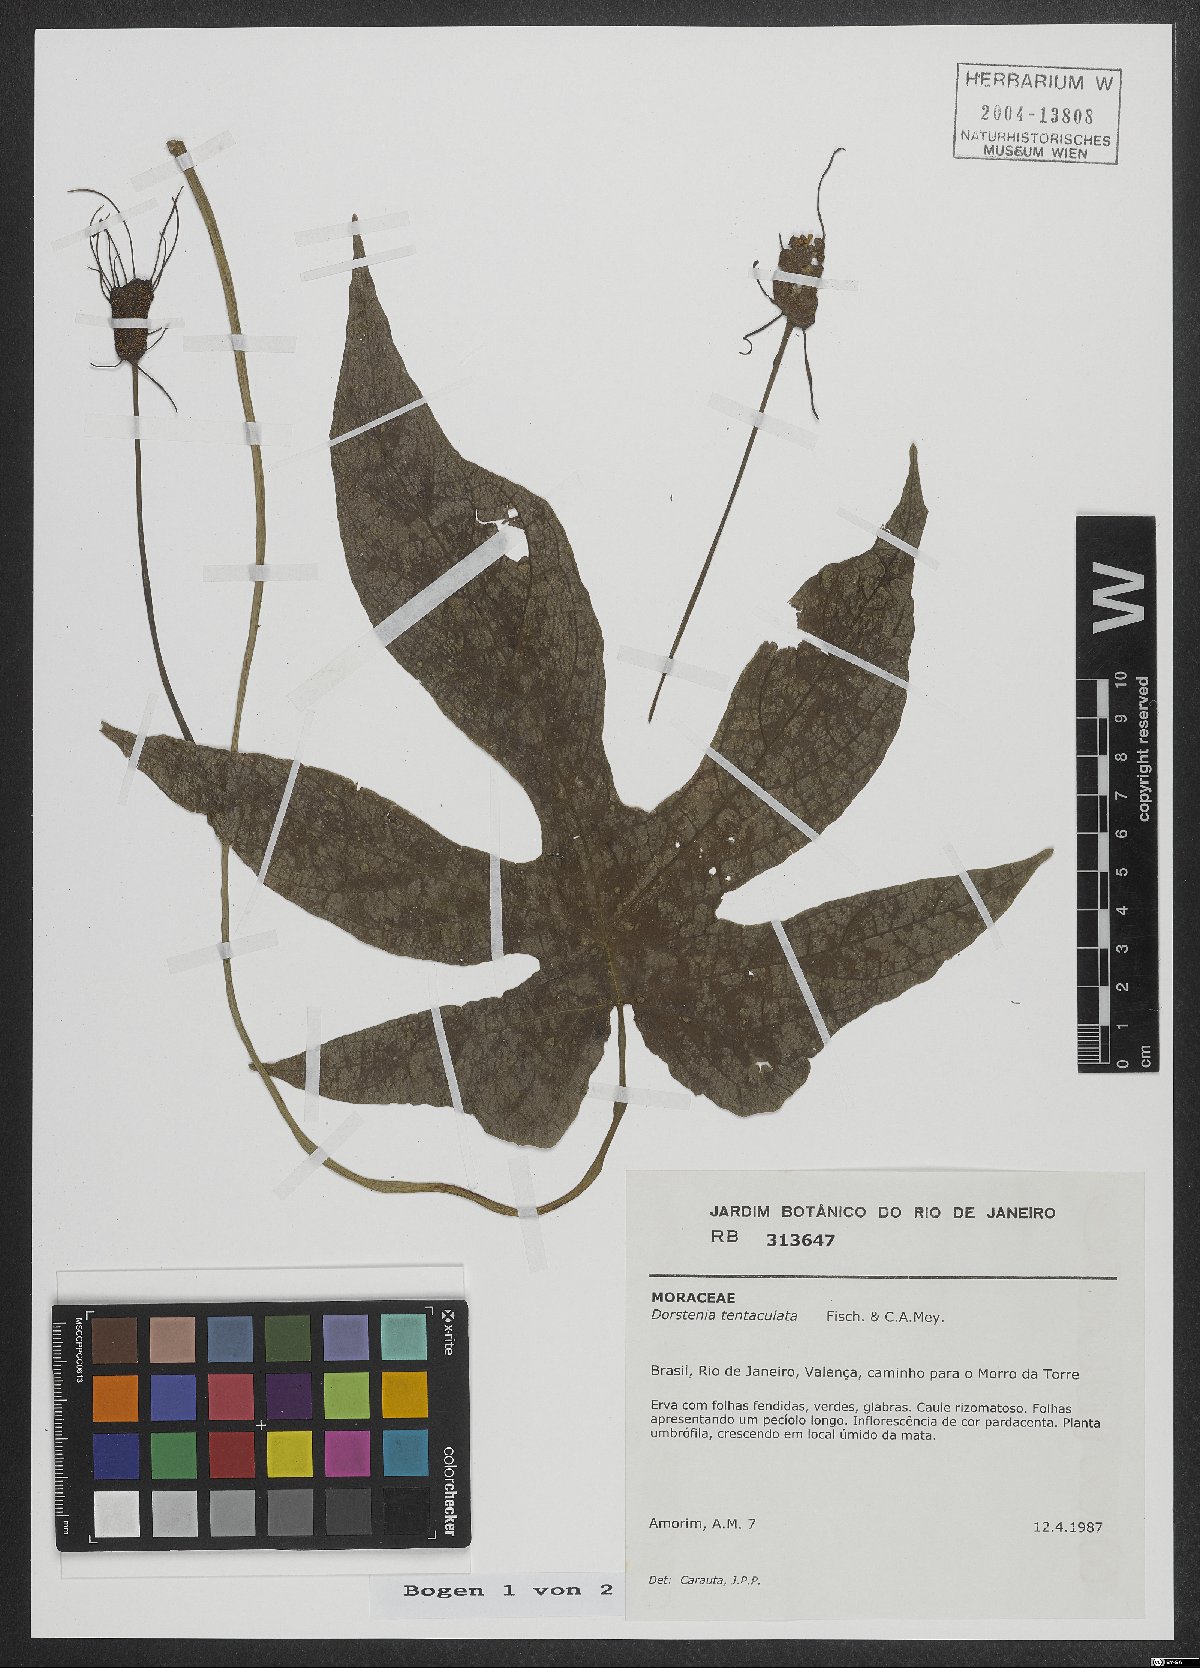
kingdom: Plantae
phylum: Tracheophyta
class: Magnoliopsida
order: Rosales
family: Moraceae
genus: Dorstenia
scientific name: Dorstenia tentaculata
